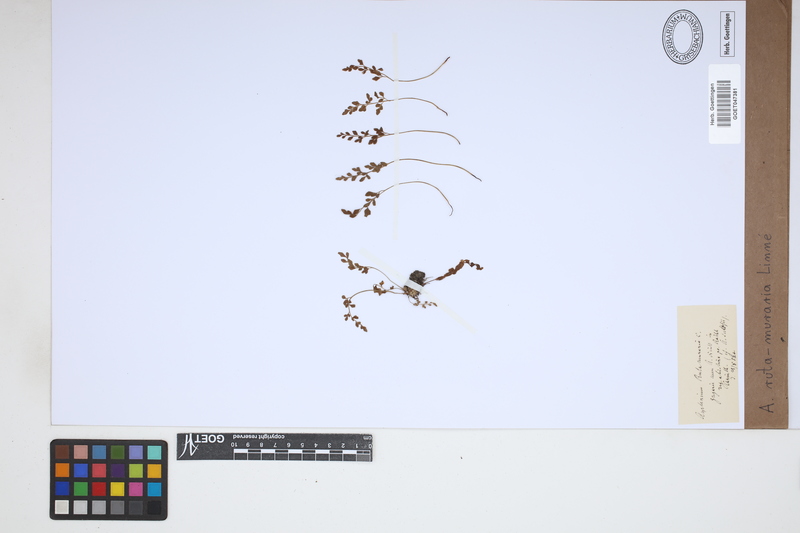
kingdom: Plantae
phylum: Tracheophyta
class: Polypodiopsida
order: Polypodiales
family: Aspleniaceae
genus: Asplenium
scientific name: Asplenium ruta-muraria
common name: Wall-rue
